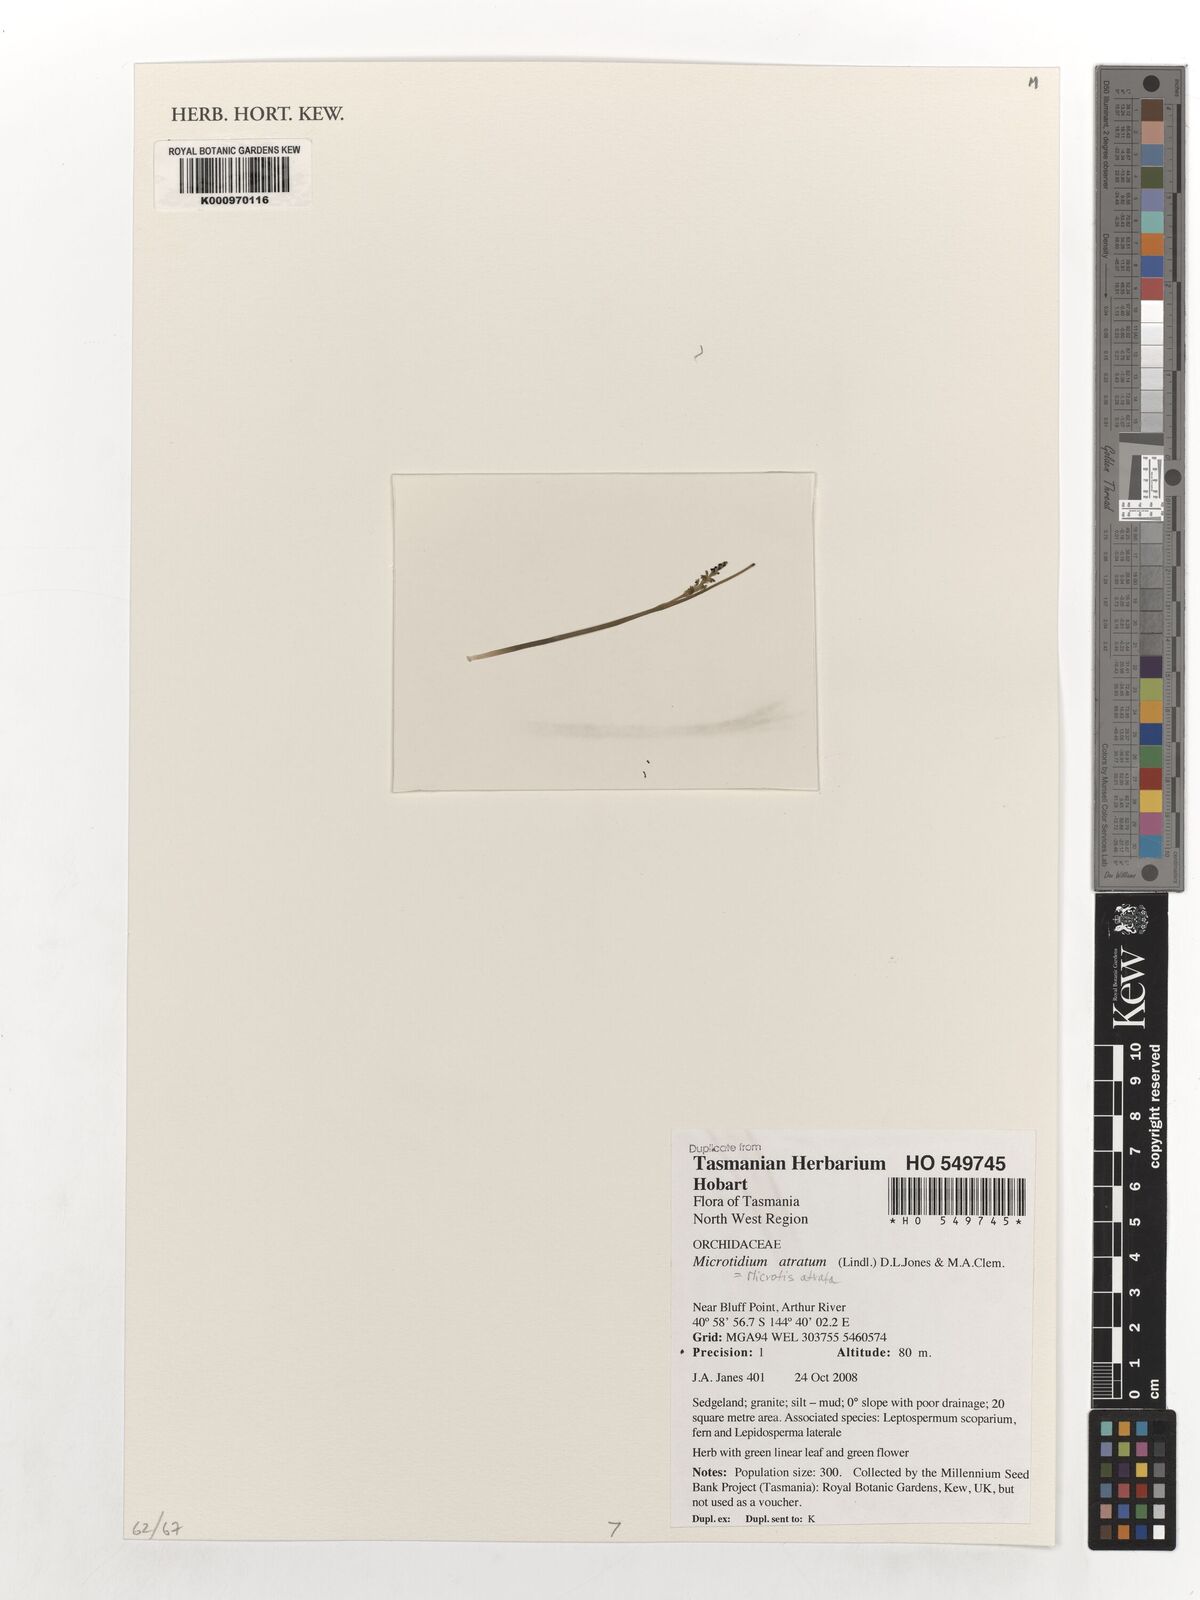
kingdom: Plantae
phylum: Tracheophyta
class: Liliopsida
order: Asparagales
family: Orchidaceae
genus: Microtis
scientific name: Microtis atrata
